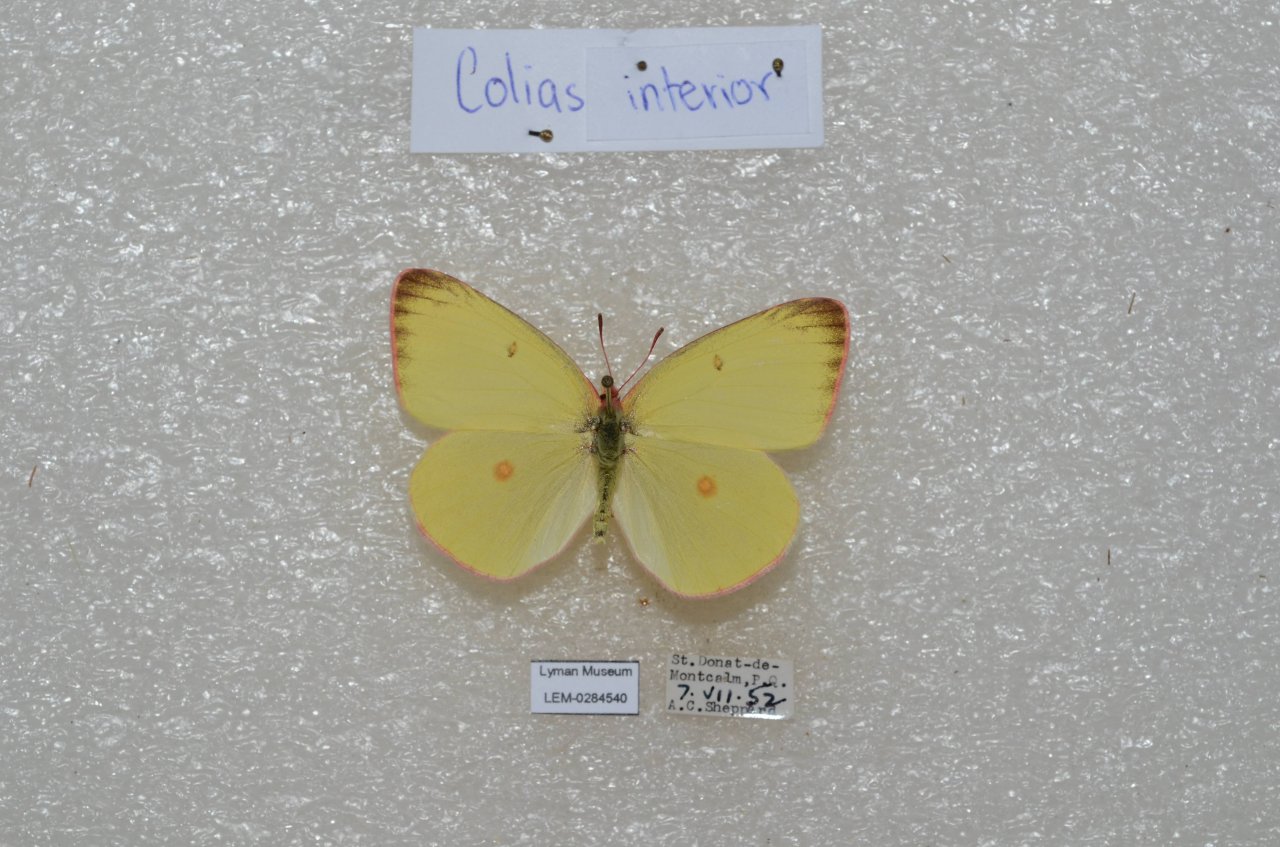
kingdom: Animalia
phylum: Arthropoda
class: Insecta
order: Lepidoptera
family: Pieridae
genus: Colias
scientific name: Colias interior
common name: Pink-edged Sulphur
